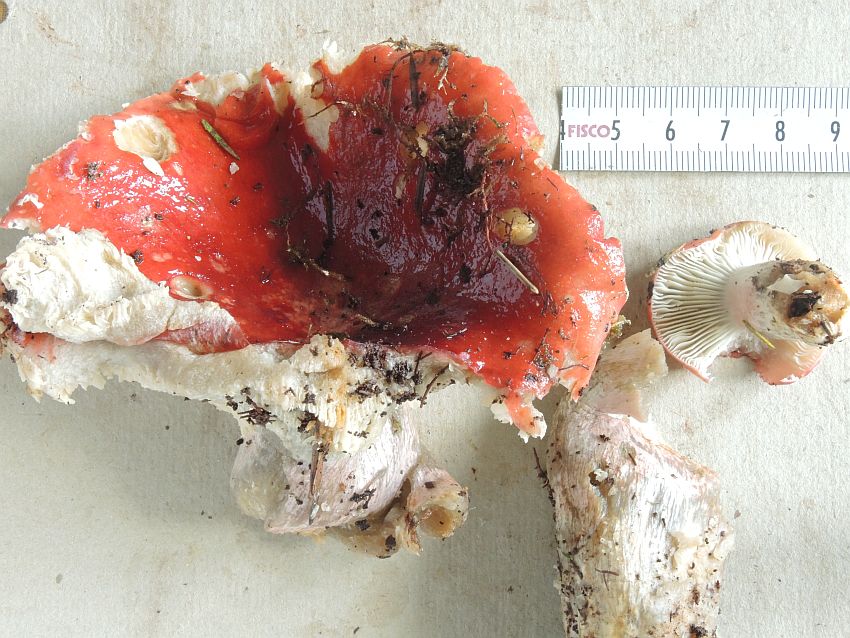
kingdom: Fungi
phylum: Basidiomycota
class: Agaricomycetes
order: Russulales
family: Russulaceae
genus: Russula
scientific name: Russula helodes
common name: sump-skørhat
